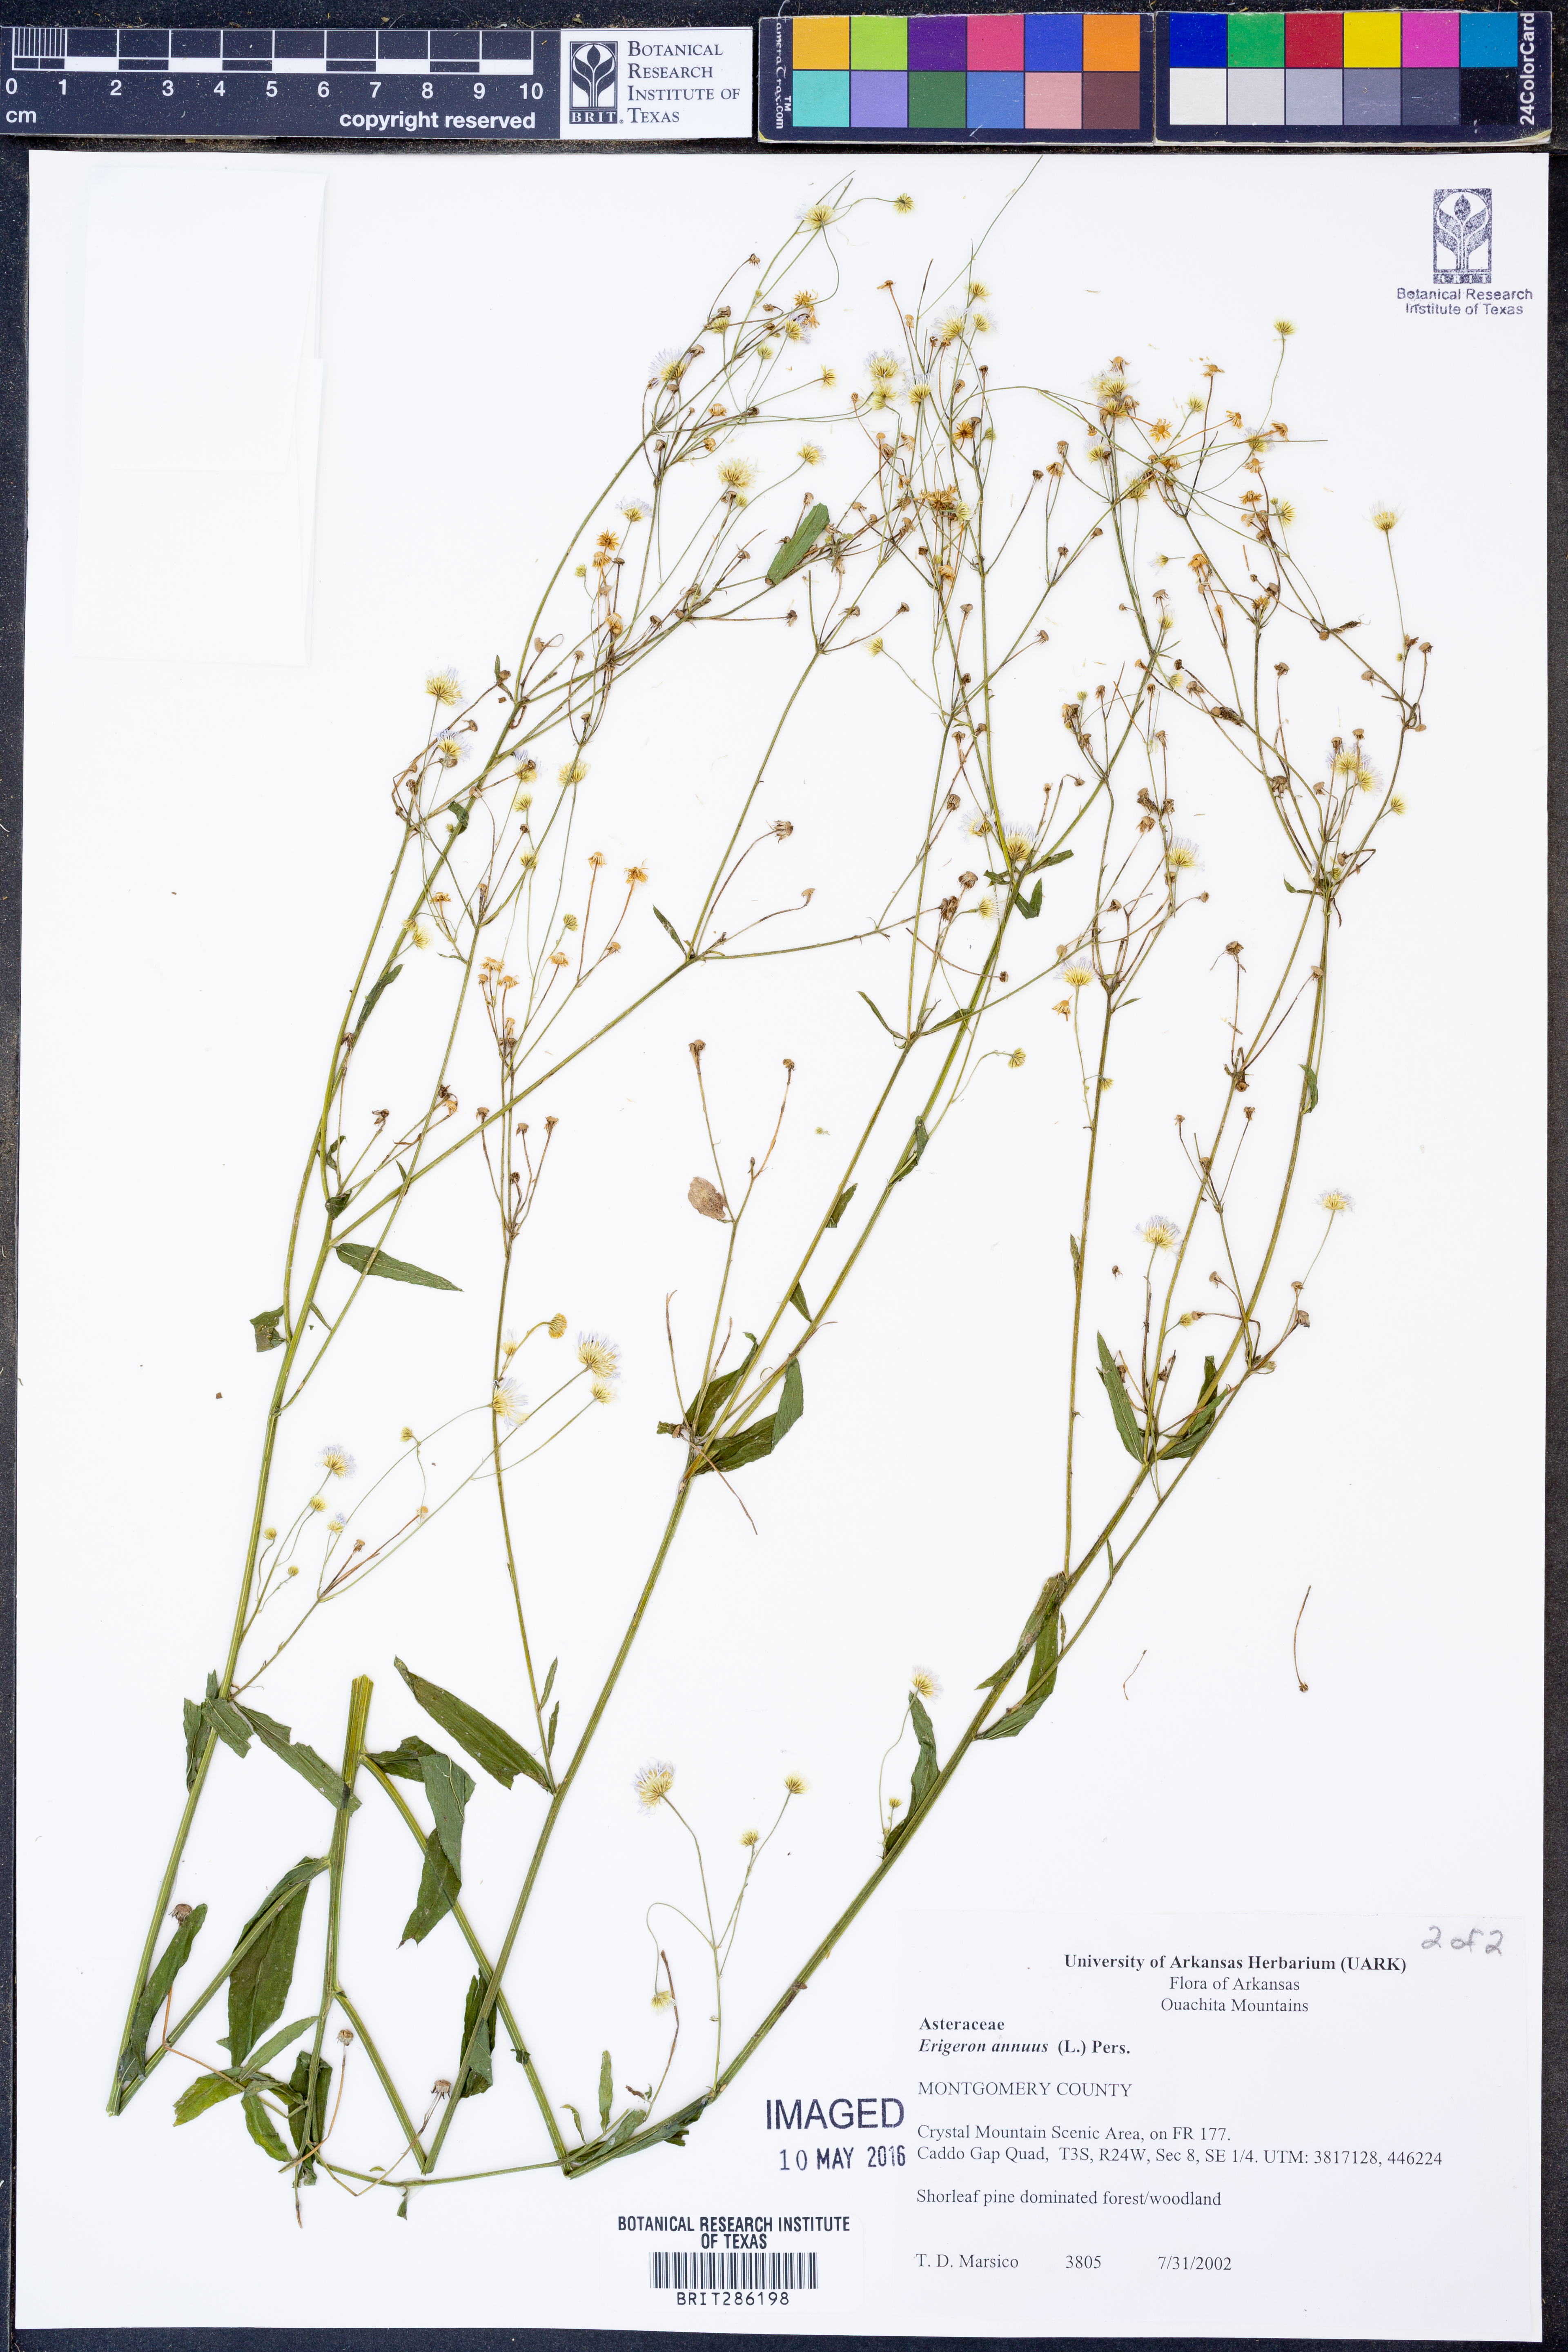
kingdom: Plantae
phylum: Tracheophyta
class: Magnoliopsida
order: Asterales
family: Asteraceae
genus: Erigeron
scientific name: Erigeron annuus
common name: Tall fleabane
